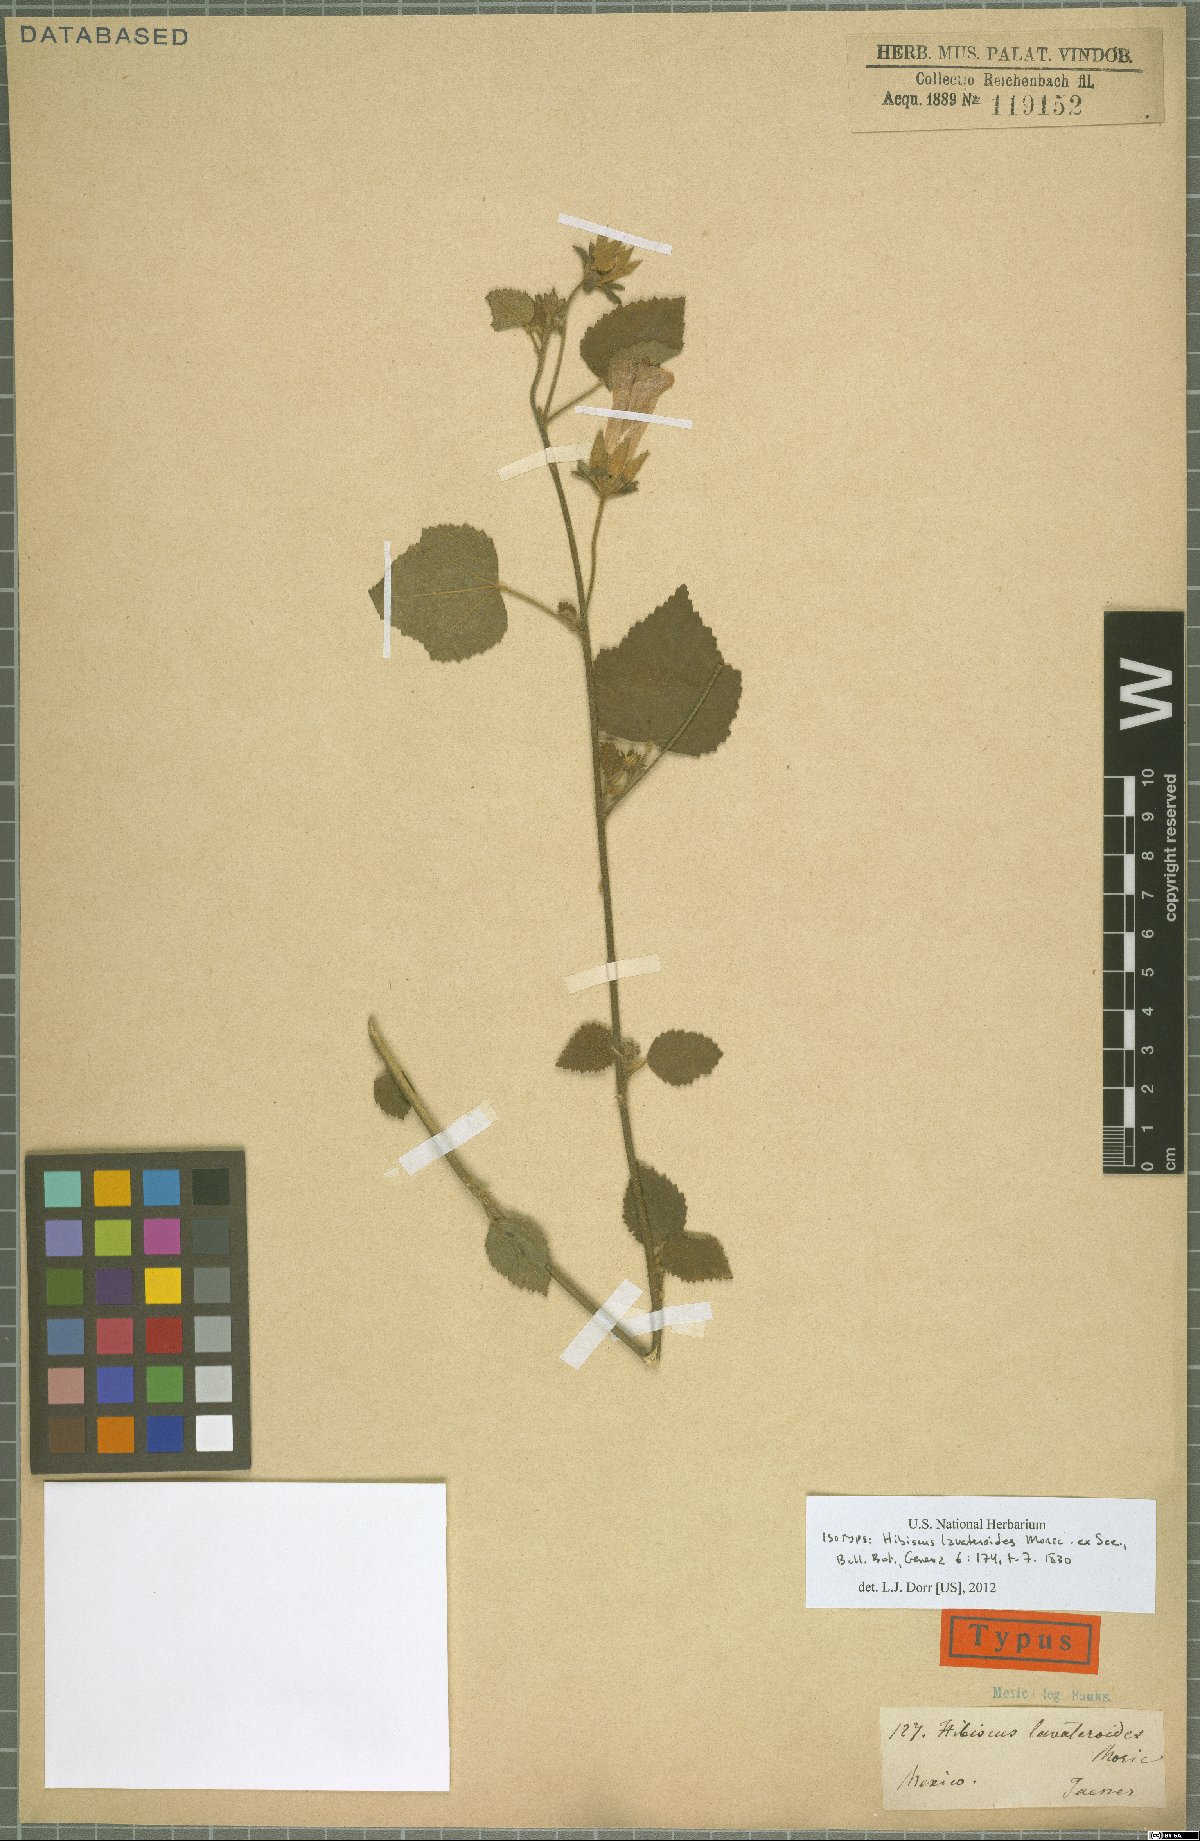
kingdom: Plantae
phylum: Tracheophyta
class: Magnoliopsida
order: Malvales
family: Malvaceae
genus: Hibiscus
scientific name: Hibiscus lavateroides
